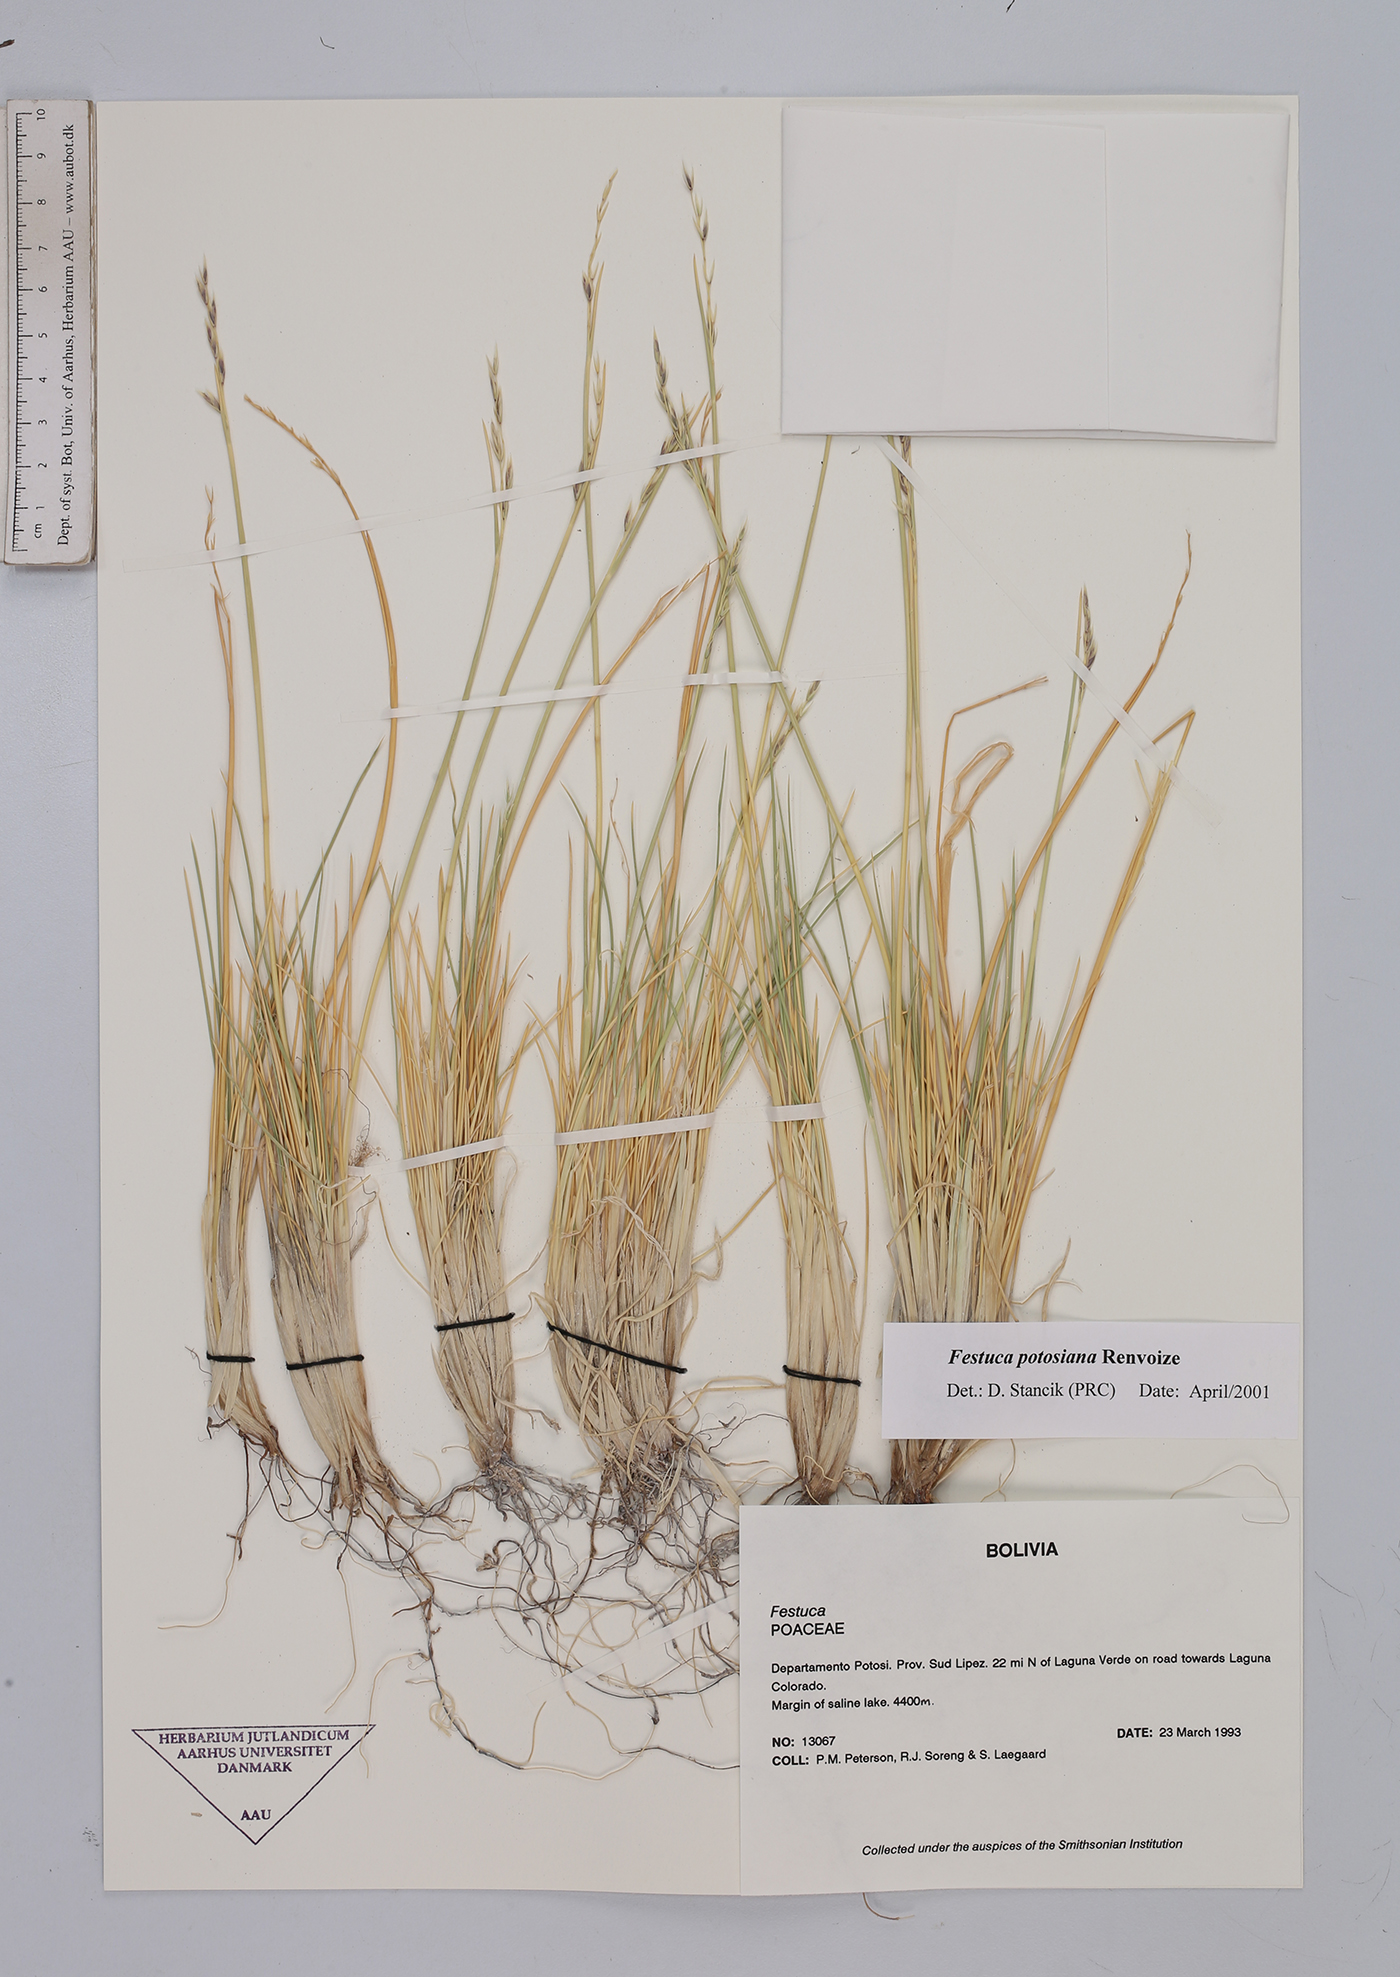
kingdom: Plantae
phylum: Tracheophyta
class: Liliopsida
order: Poales
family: Poaceae
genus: Festuca
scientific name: Festuca dissitiflora
